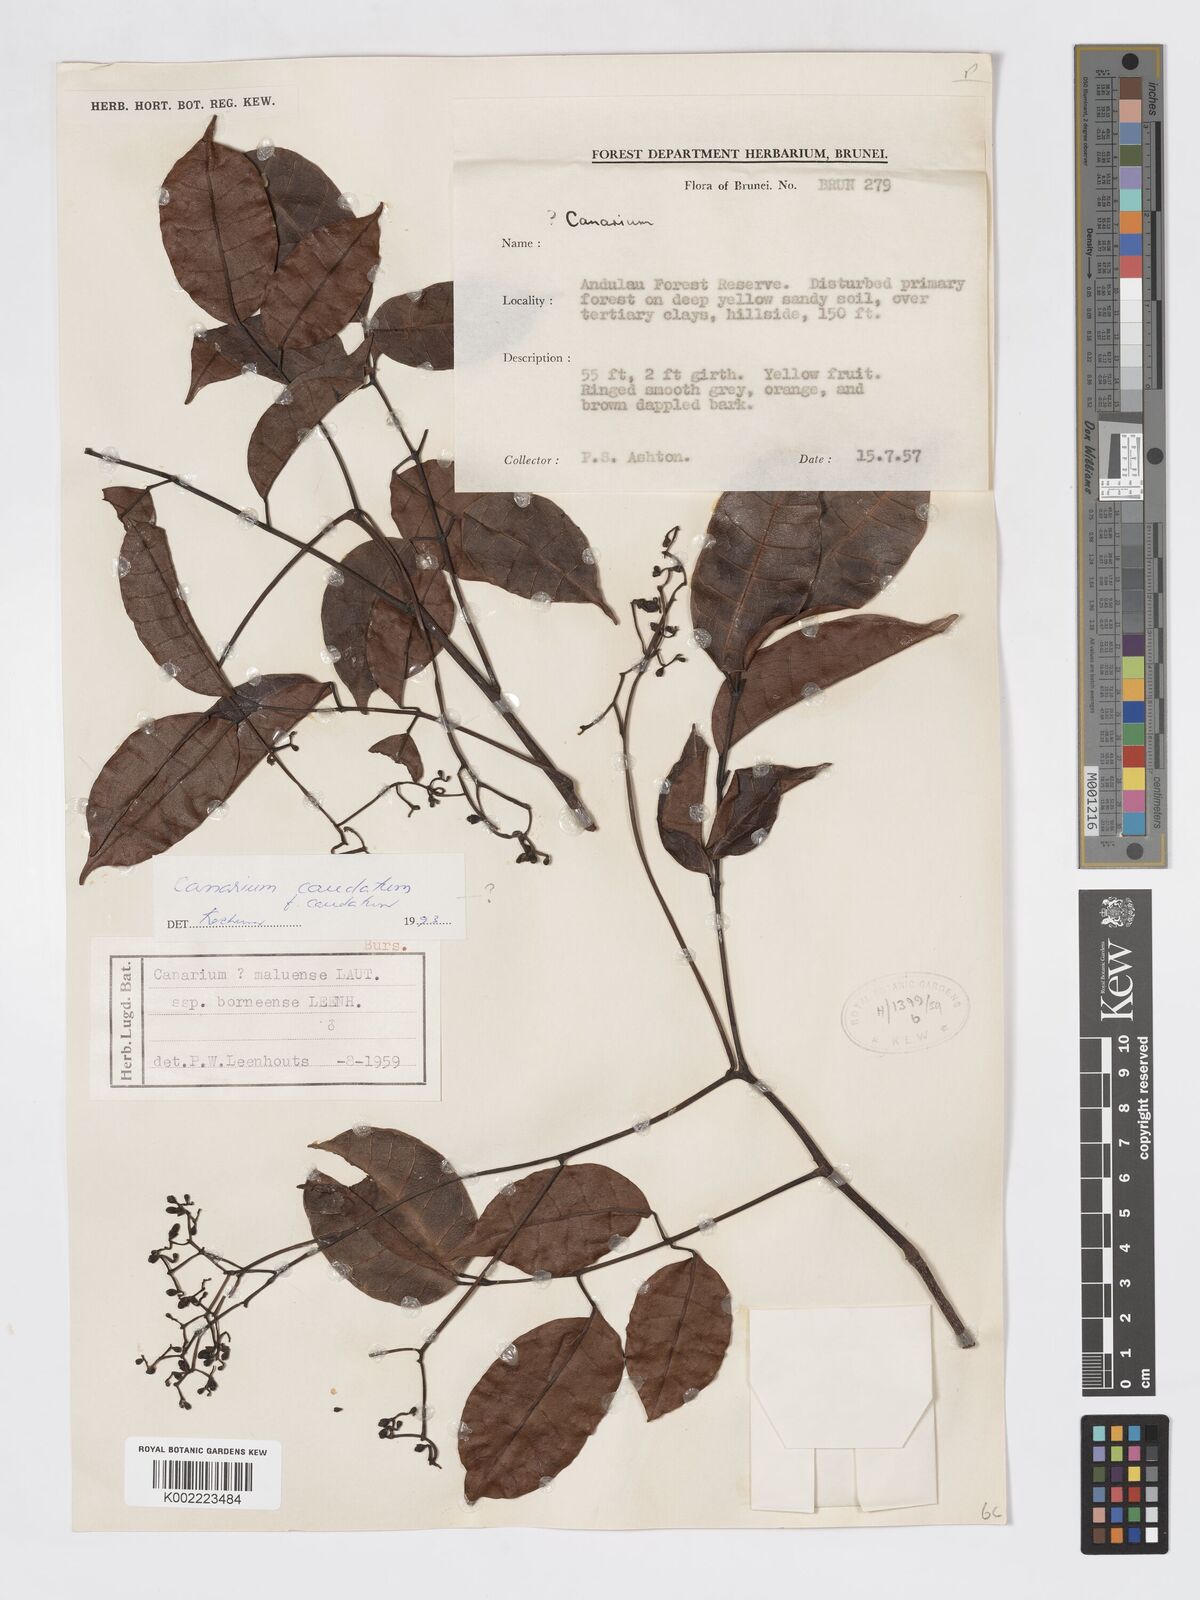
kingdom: Plantae
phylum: Tracheophyta
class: Magnoliopsida
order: Sapindales
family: Burseraceae
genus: Canarium
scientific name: Canarium caudatum
